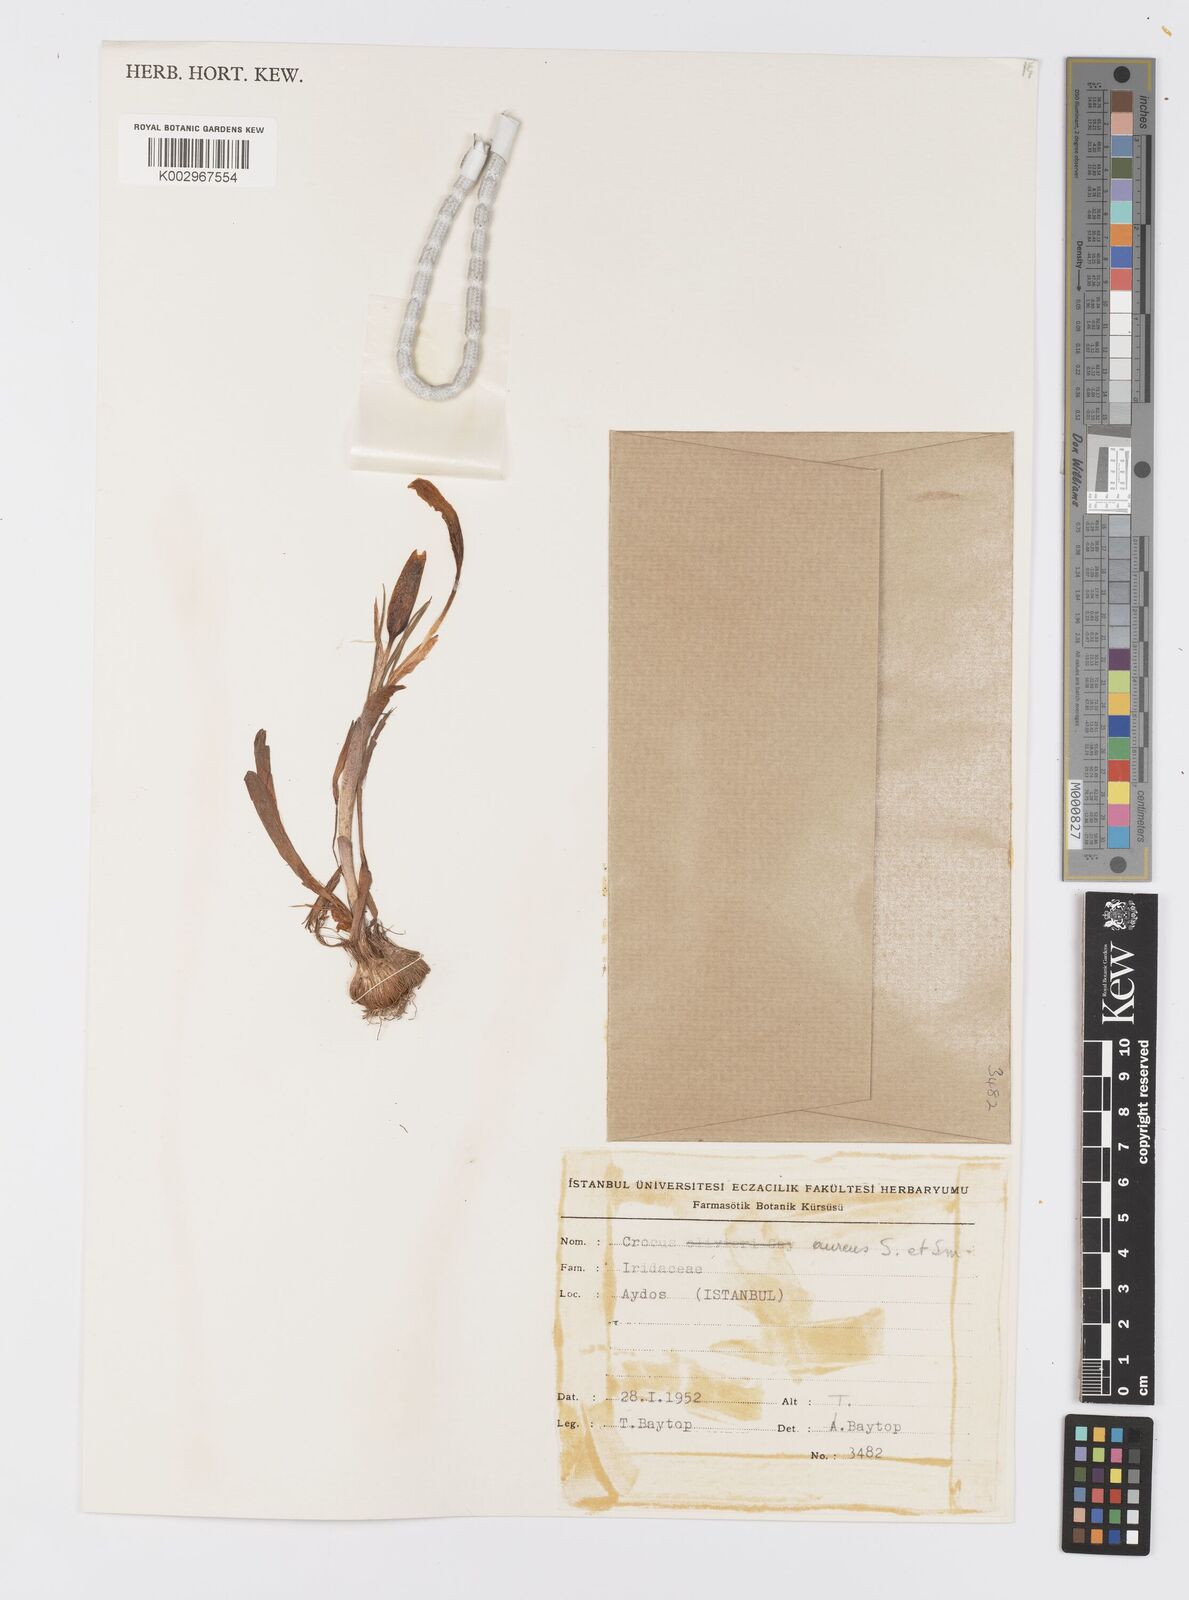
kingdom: Plantae
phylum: Tracheophyta
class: Liliopsida
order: Asparagales
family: Iridaceae
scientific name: Iridaceae
